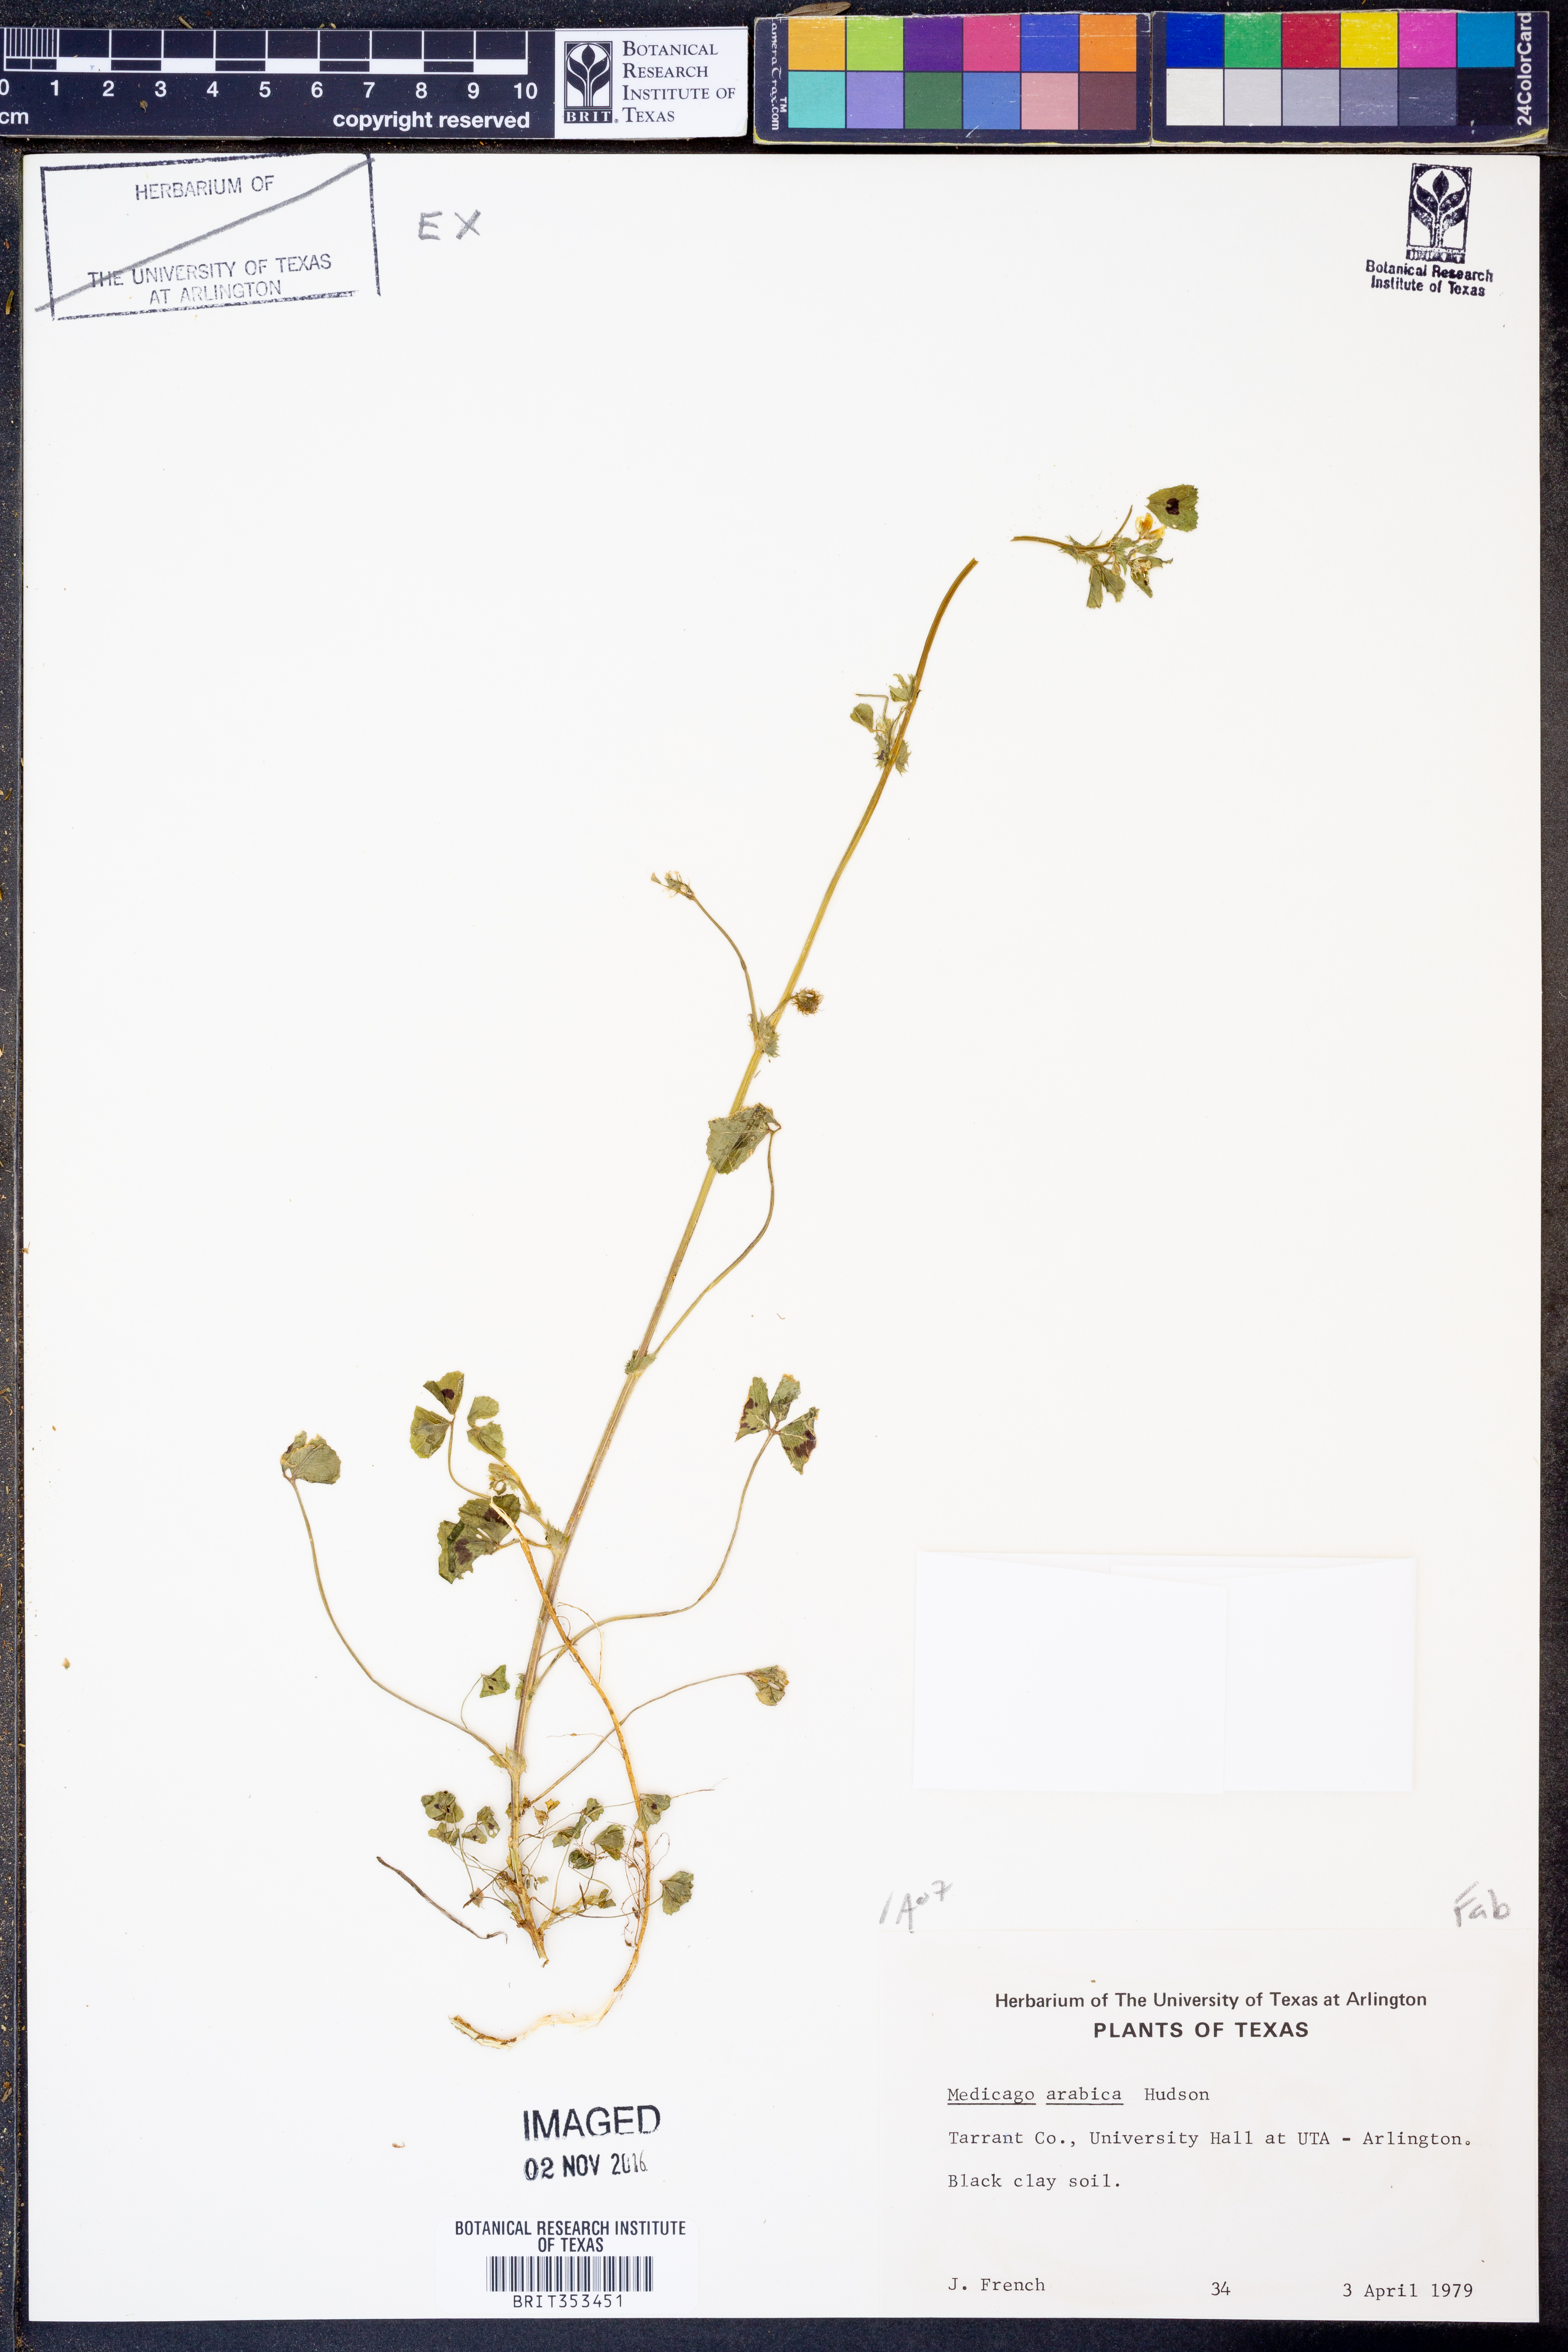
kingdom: Plantae
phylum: Tracheophyta
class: Magnoliopsida
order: Fabales
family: Fabaceae
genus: Medicago
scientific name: Medicago arabica
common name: Spotted medick
